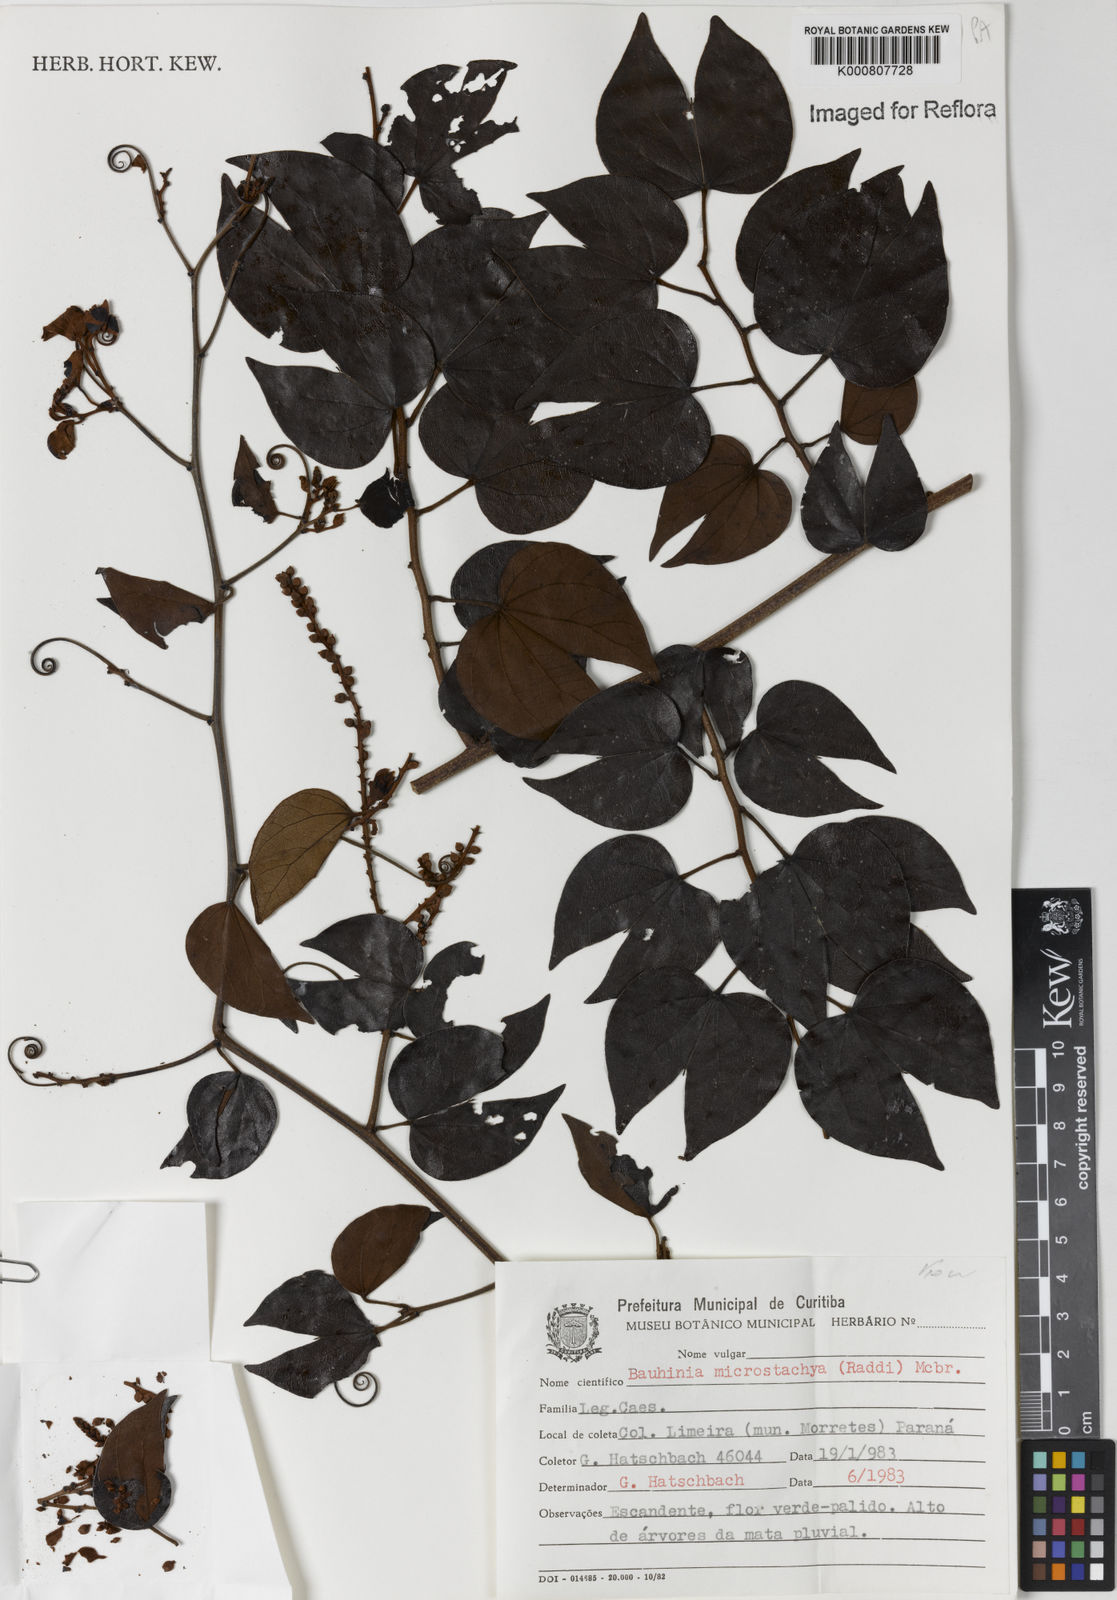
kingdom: Plantae
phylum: Tracheophyta
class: Magnoliopsida
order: Fabales
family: Fabaceae
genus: Schnella
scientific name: Schnella microstachya
